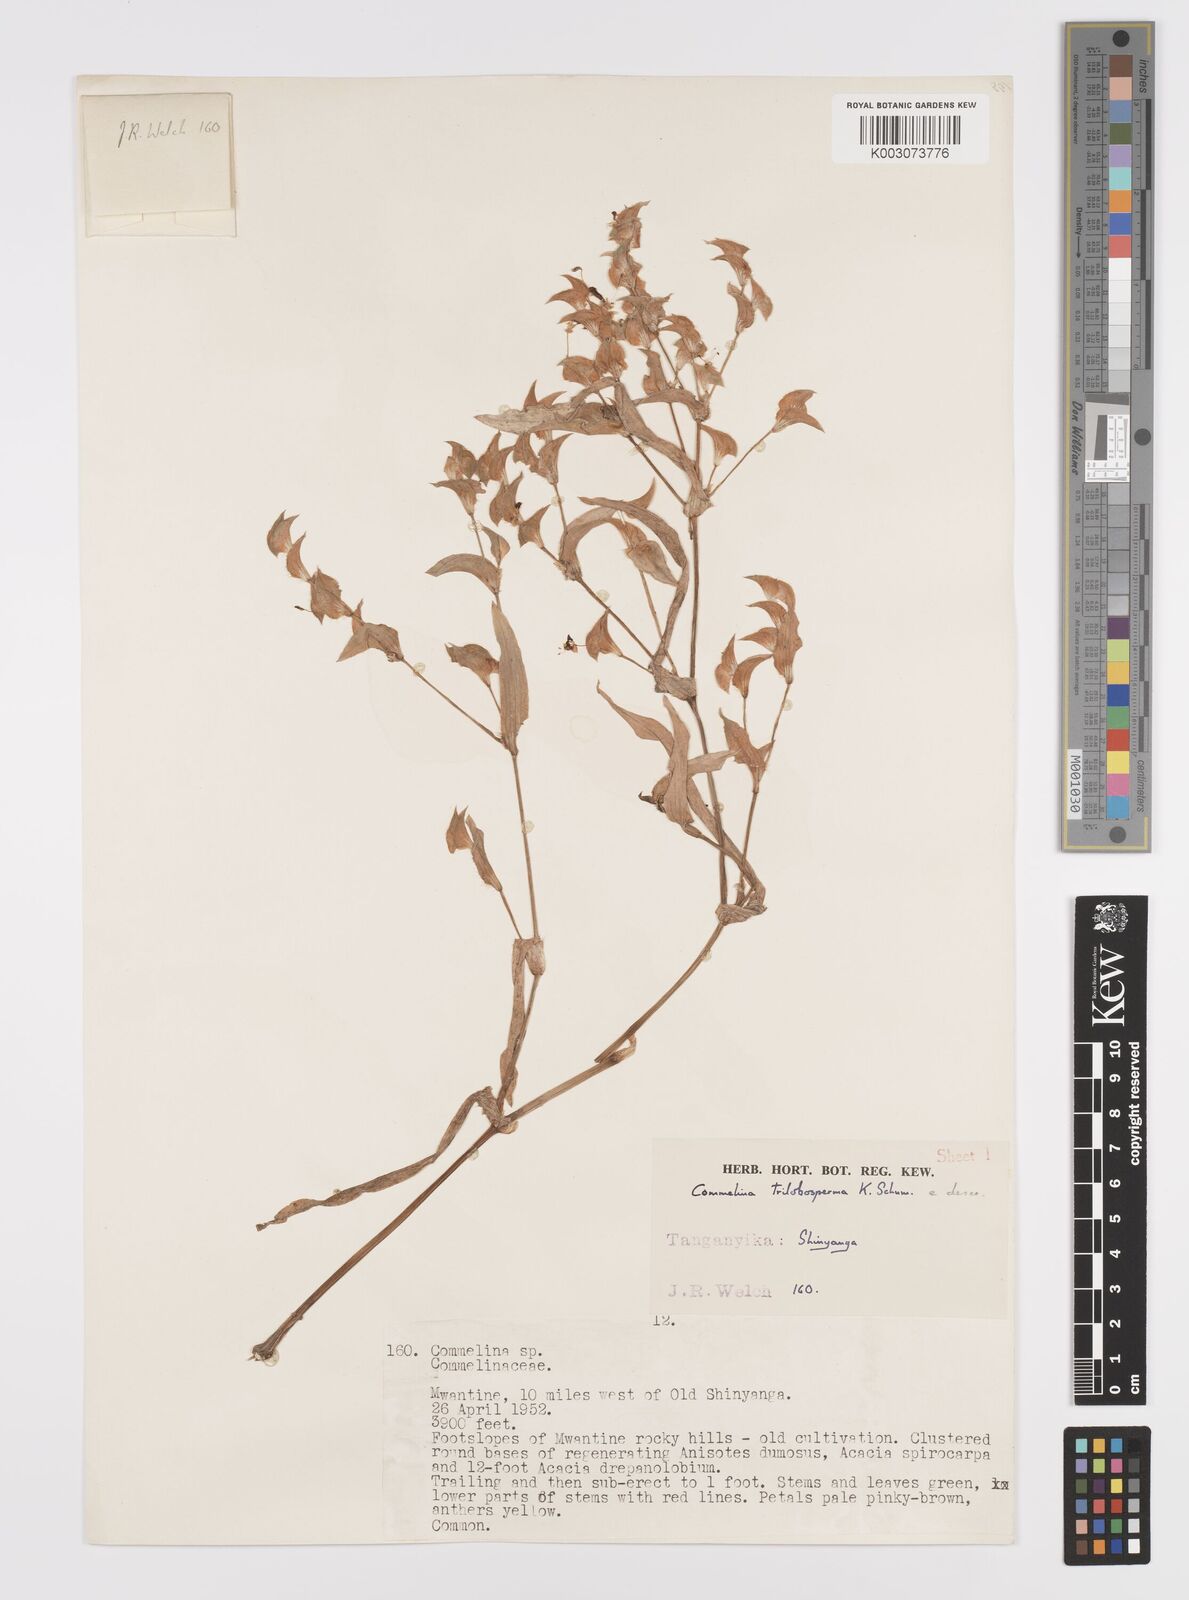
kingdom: Plantae
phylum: Tracheophyta
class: Liliopsida
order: Commelinales
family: Commelinaceae
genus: Commelina
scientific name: Commelina trilobosperma
